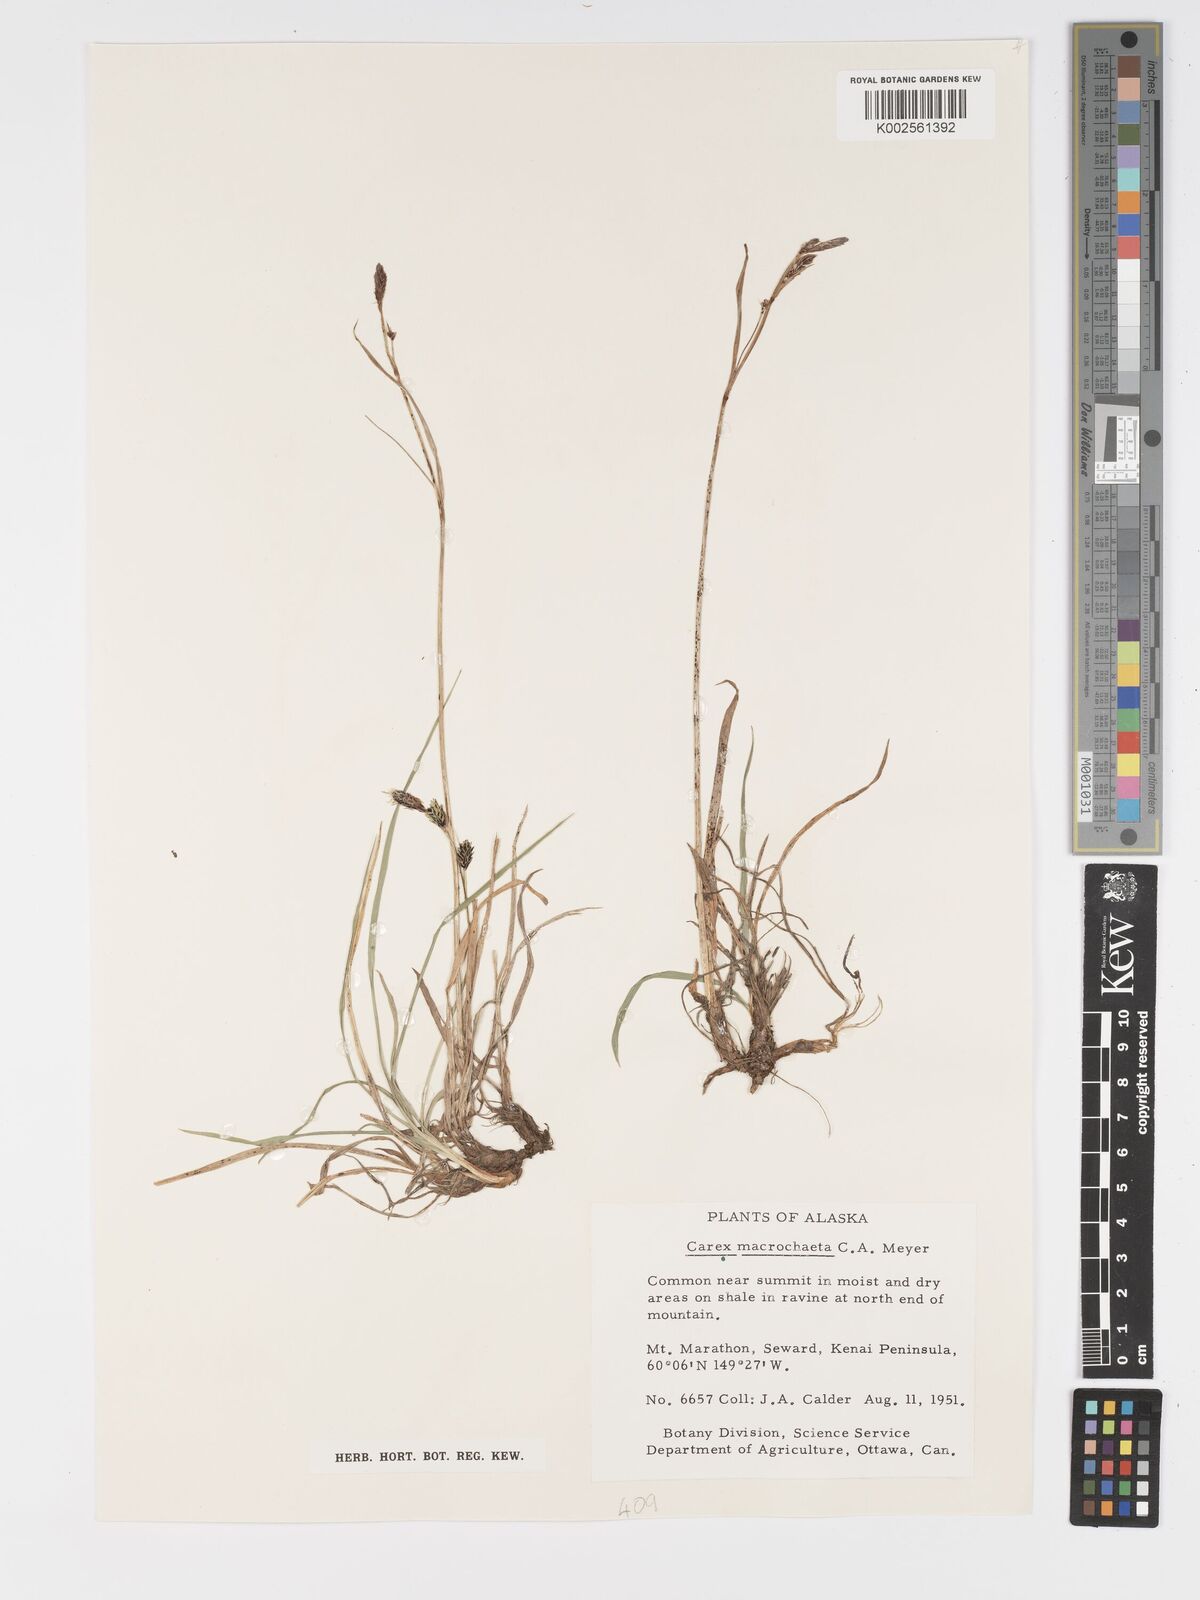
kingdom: Plantae
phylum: Tracheophyta
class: Liliopsida
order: Poales
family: Cyperaceae
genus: Carex
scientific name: Carex macrochaeta
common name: Alaska large awn sedge
